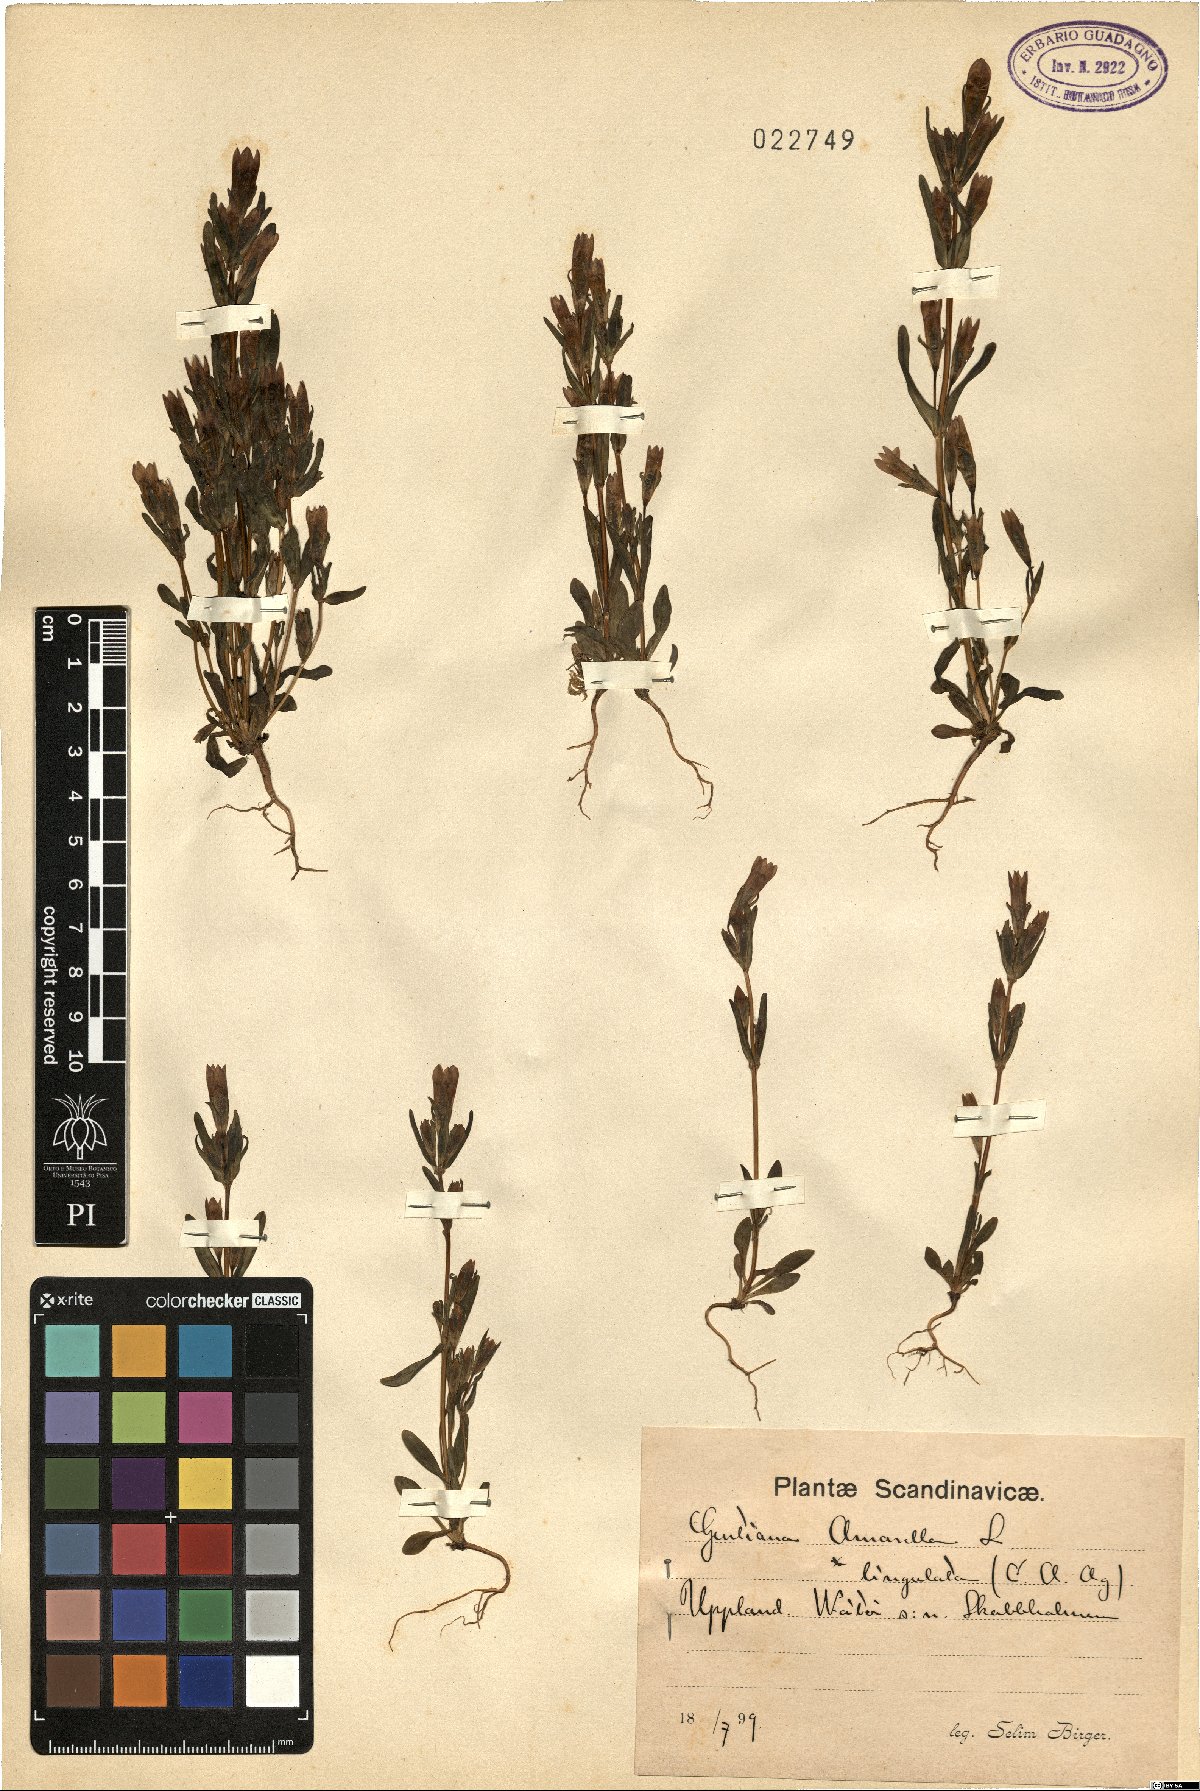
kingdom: Plantae
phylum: Tracheophyta
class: Magnoliopsida
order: Gentianales
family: Gentianaceae
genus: Gentianella
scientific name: Gentianella amarella
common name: Autumn gentian
